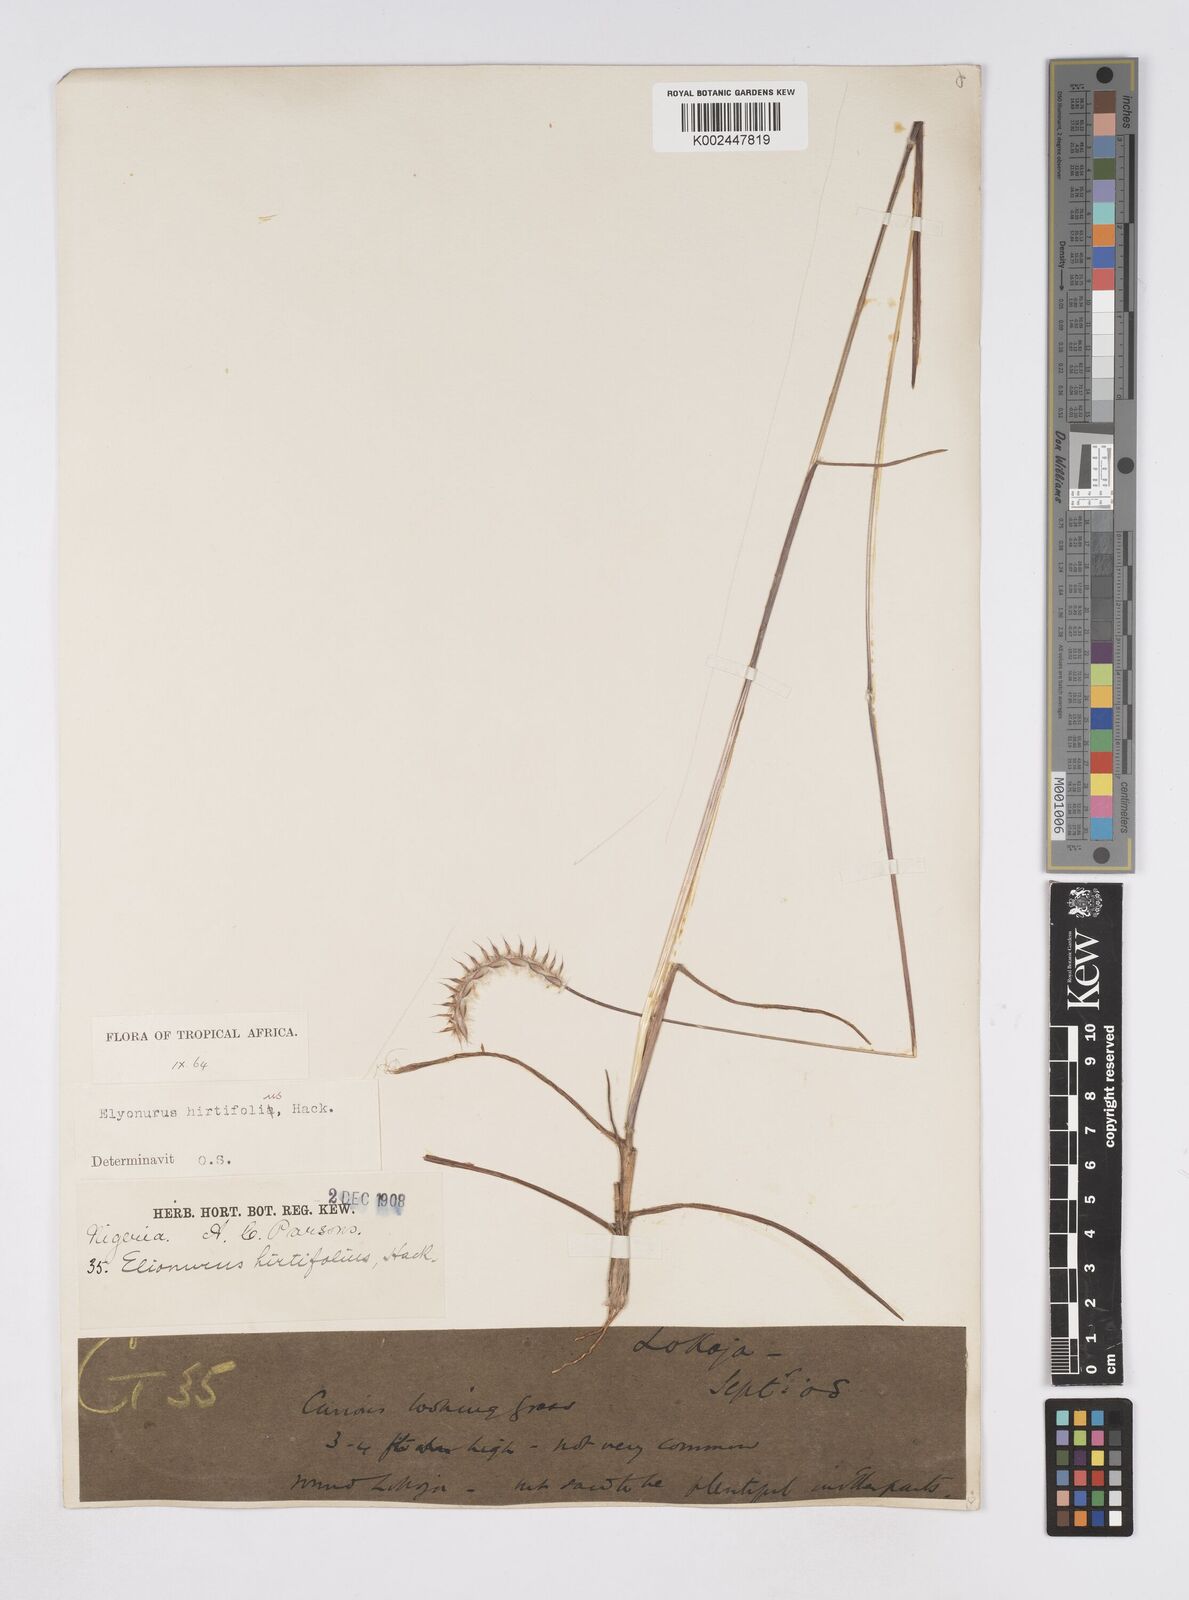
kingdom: Plantae
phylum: Tracheophyta
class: Liliopsida
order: Poales
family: Poaceae
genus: Elionurus
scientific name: Elionurus hirtifolius
